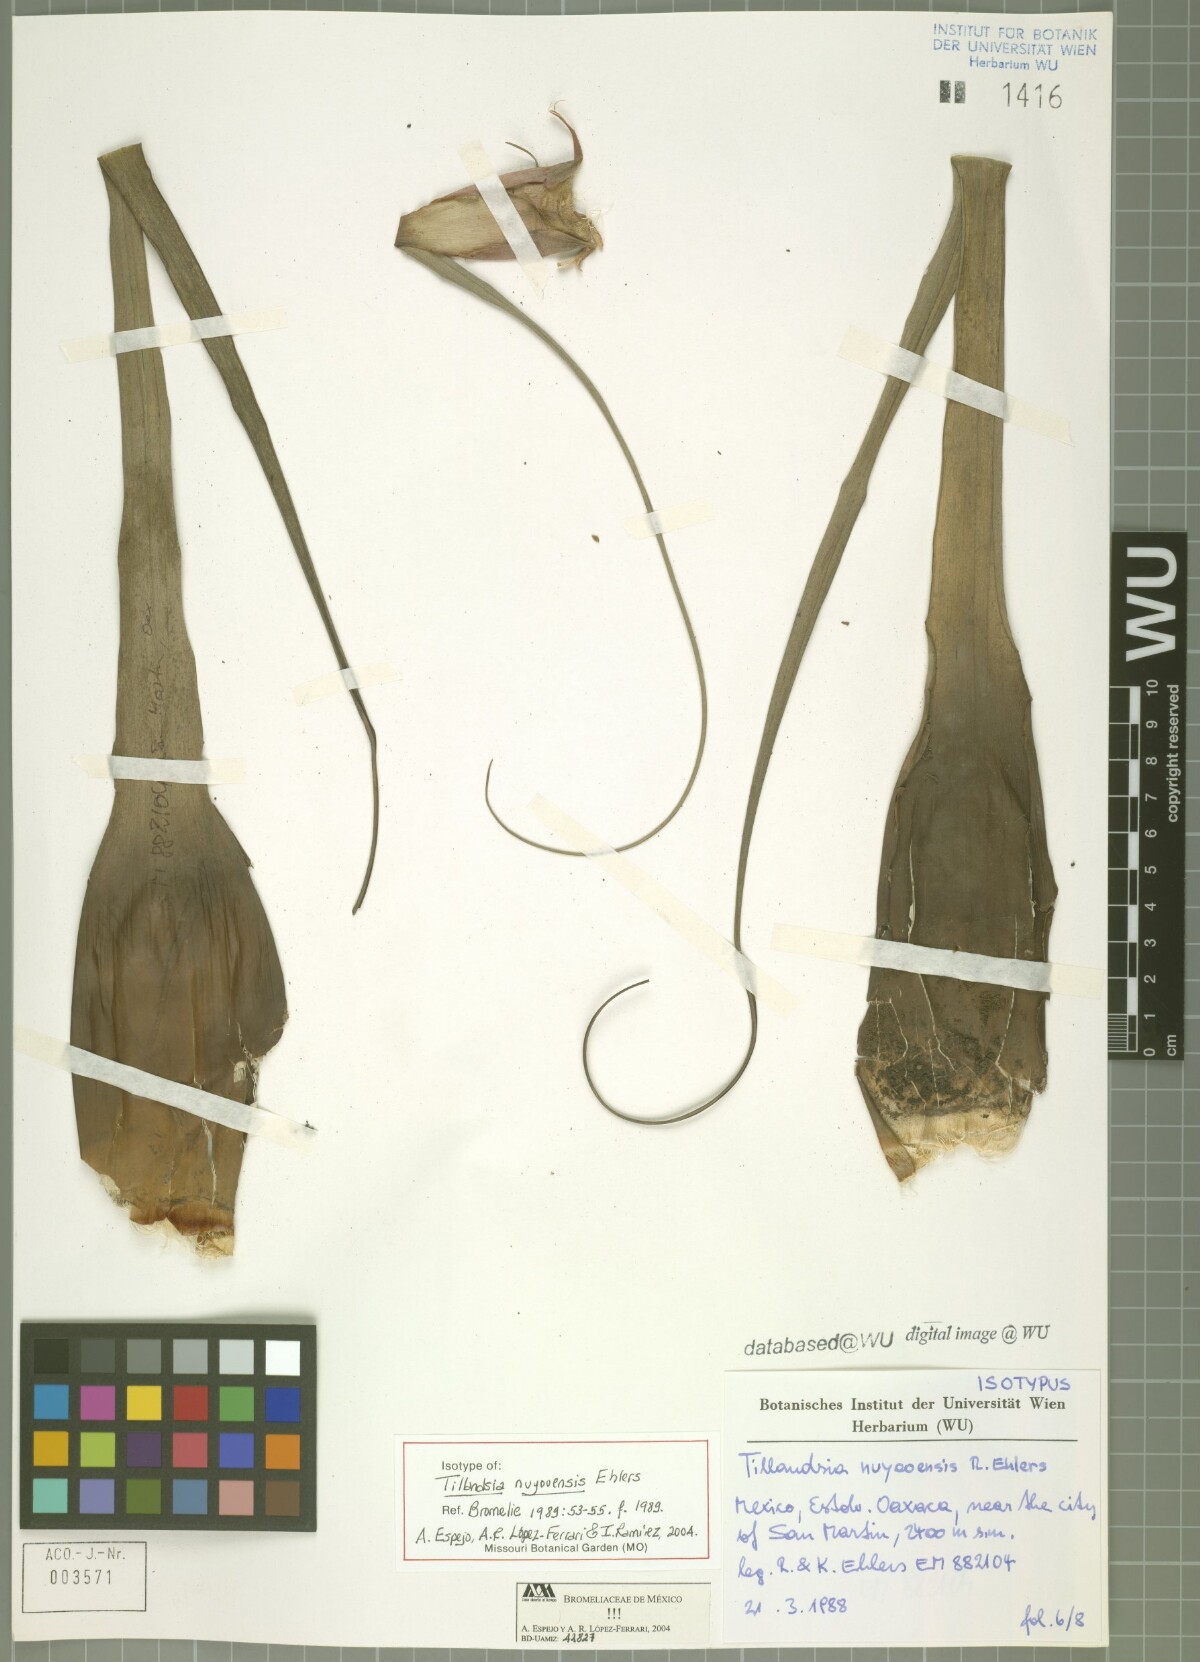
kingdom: Plantae
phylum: Tracheophyta
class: Liliopsida
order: Poales
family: Bromeliaceae
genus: Tillandsia
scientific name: Tillandsia nuyooensis
